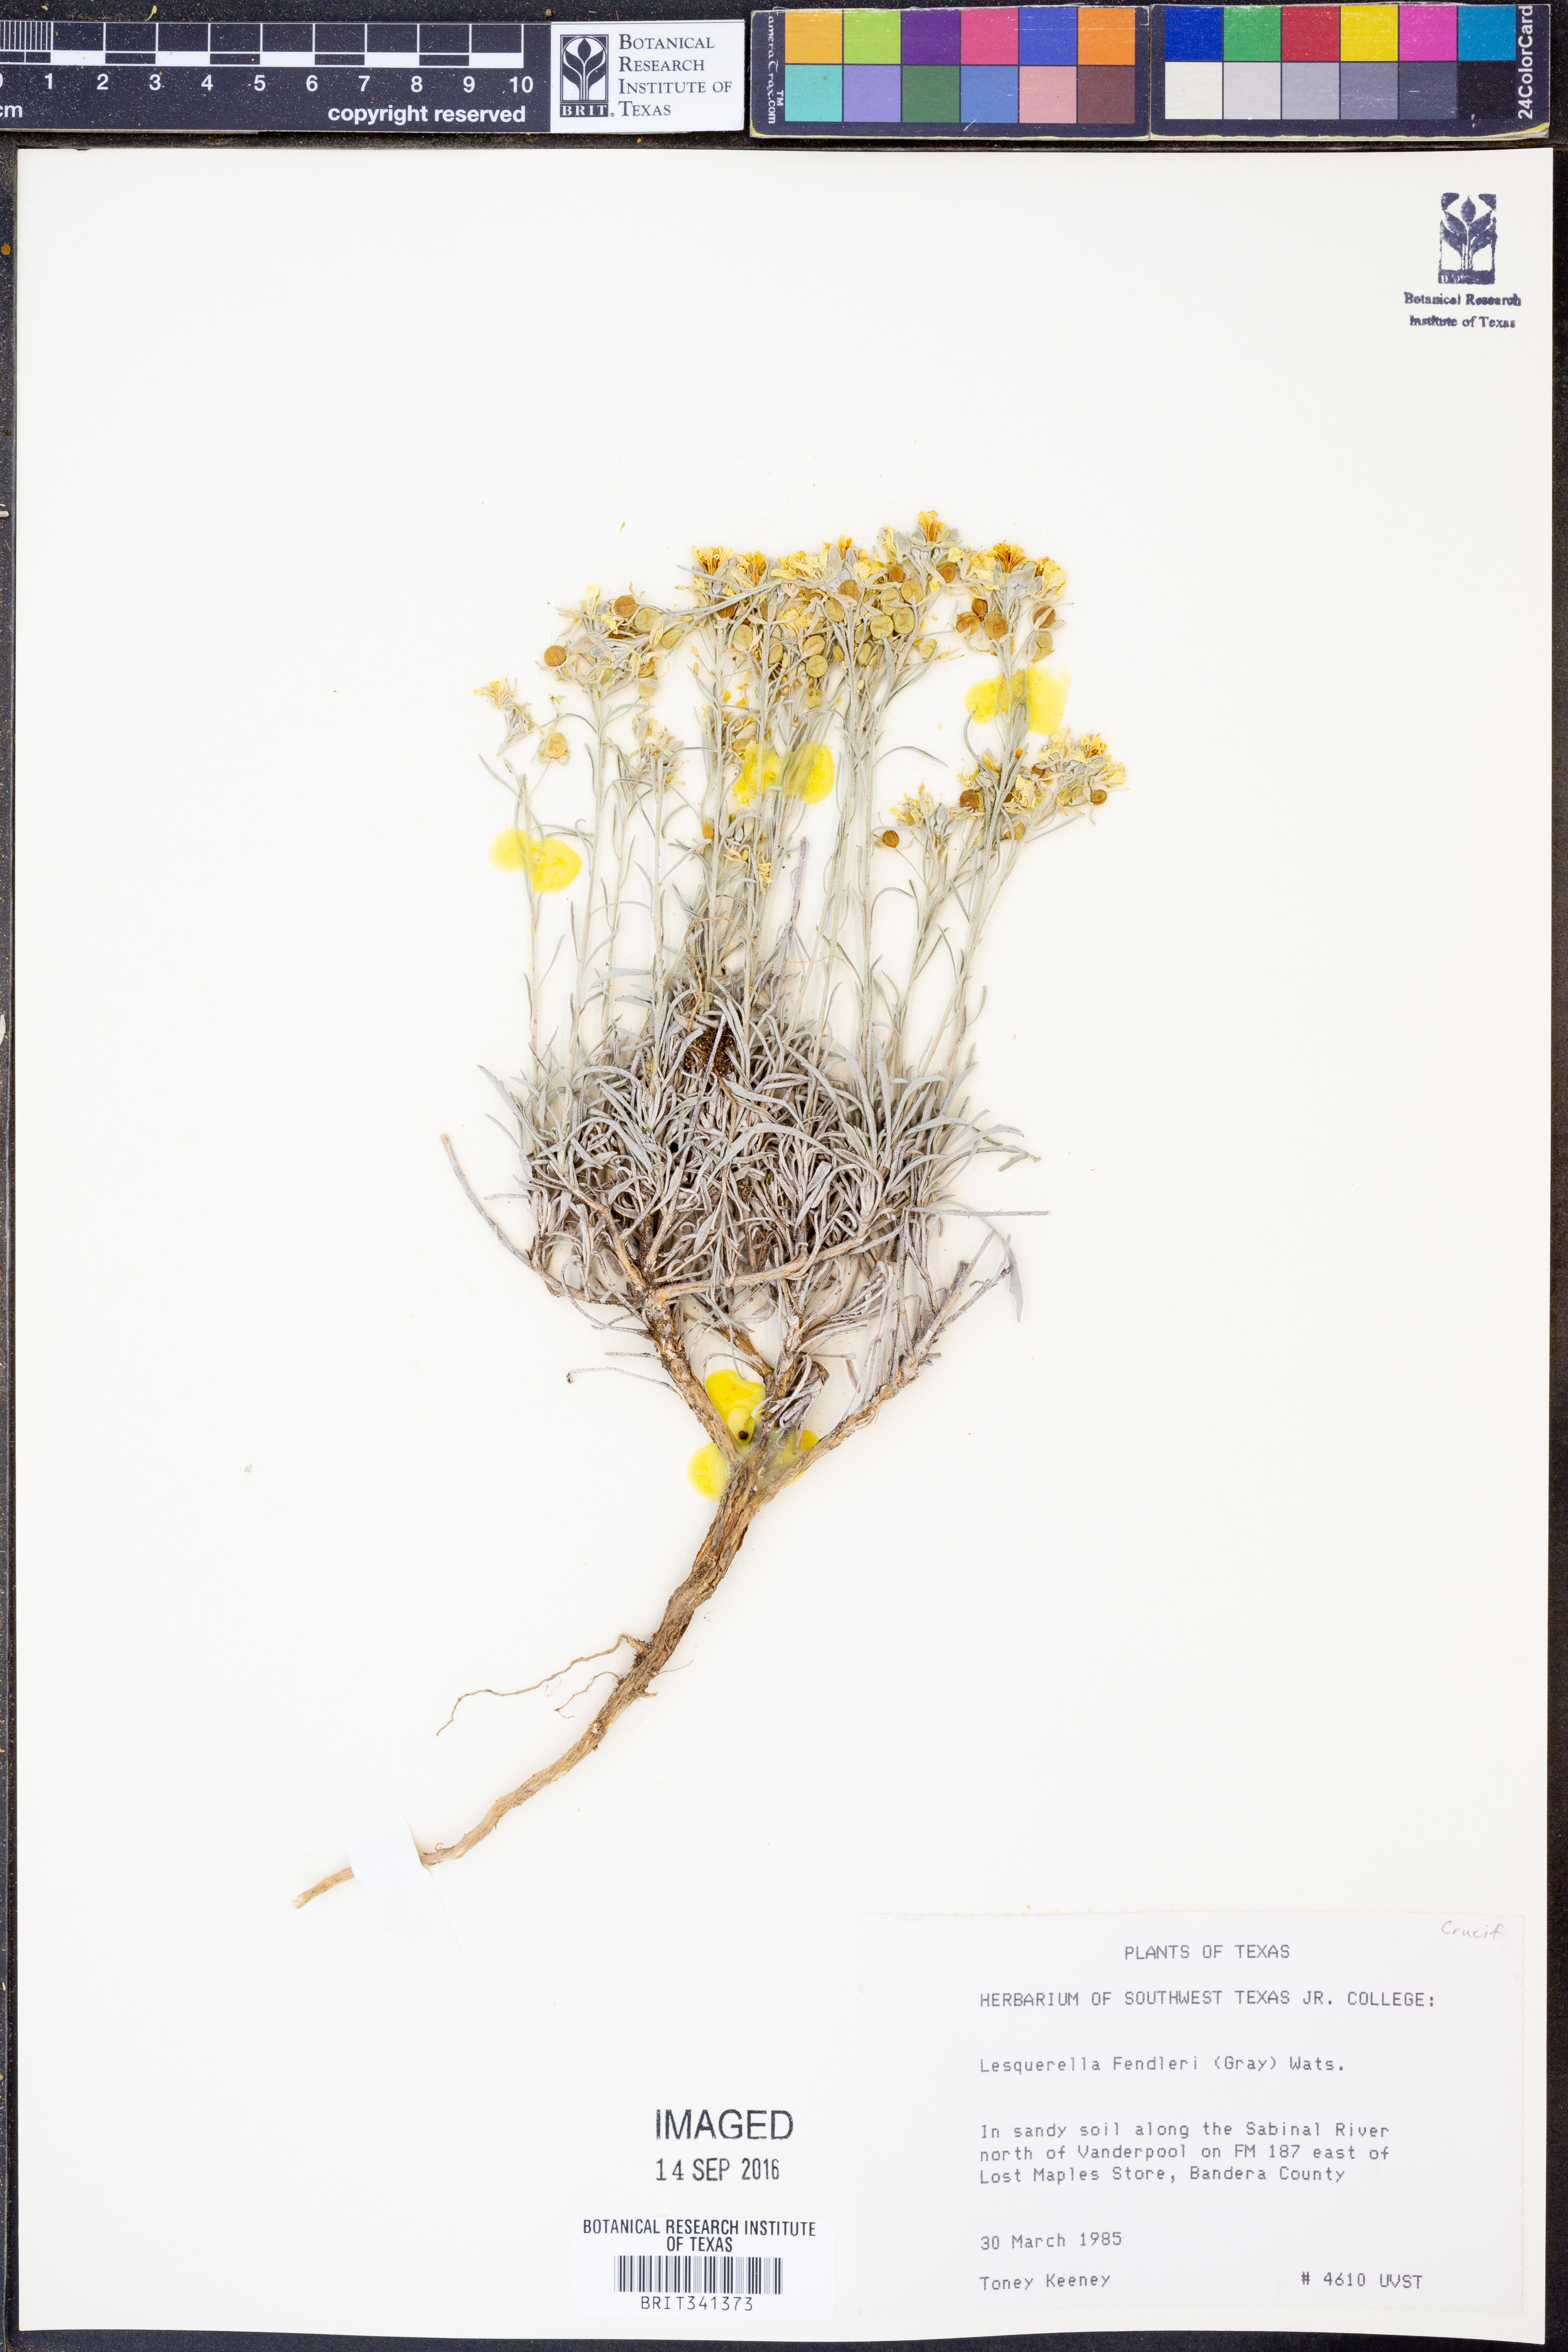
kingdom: Plantae
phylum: Tracheophyta
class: Magnoliopsida
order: Brassicales
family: Brassicaceae
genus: Physaria
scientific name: Physaria fendleri
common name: Fendler's bladderpod
